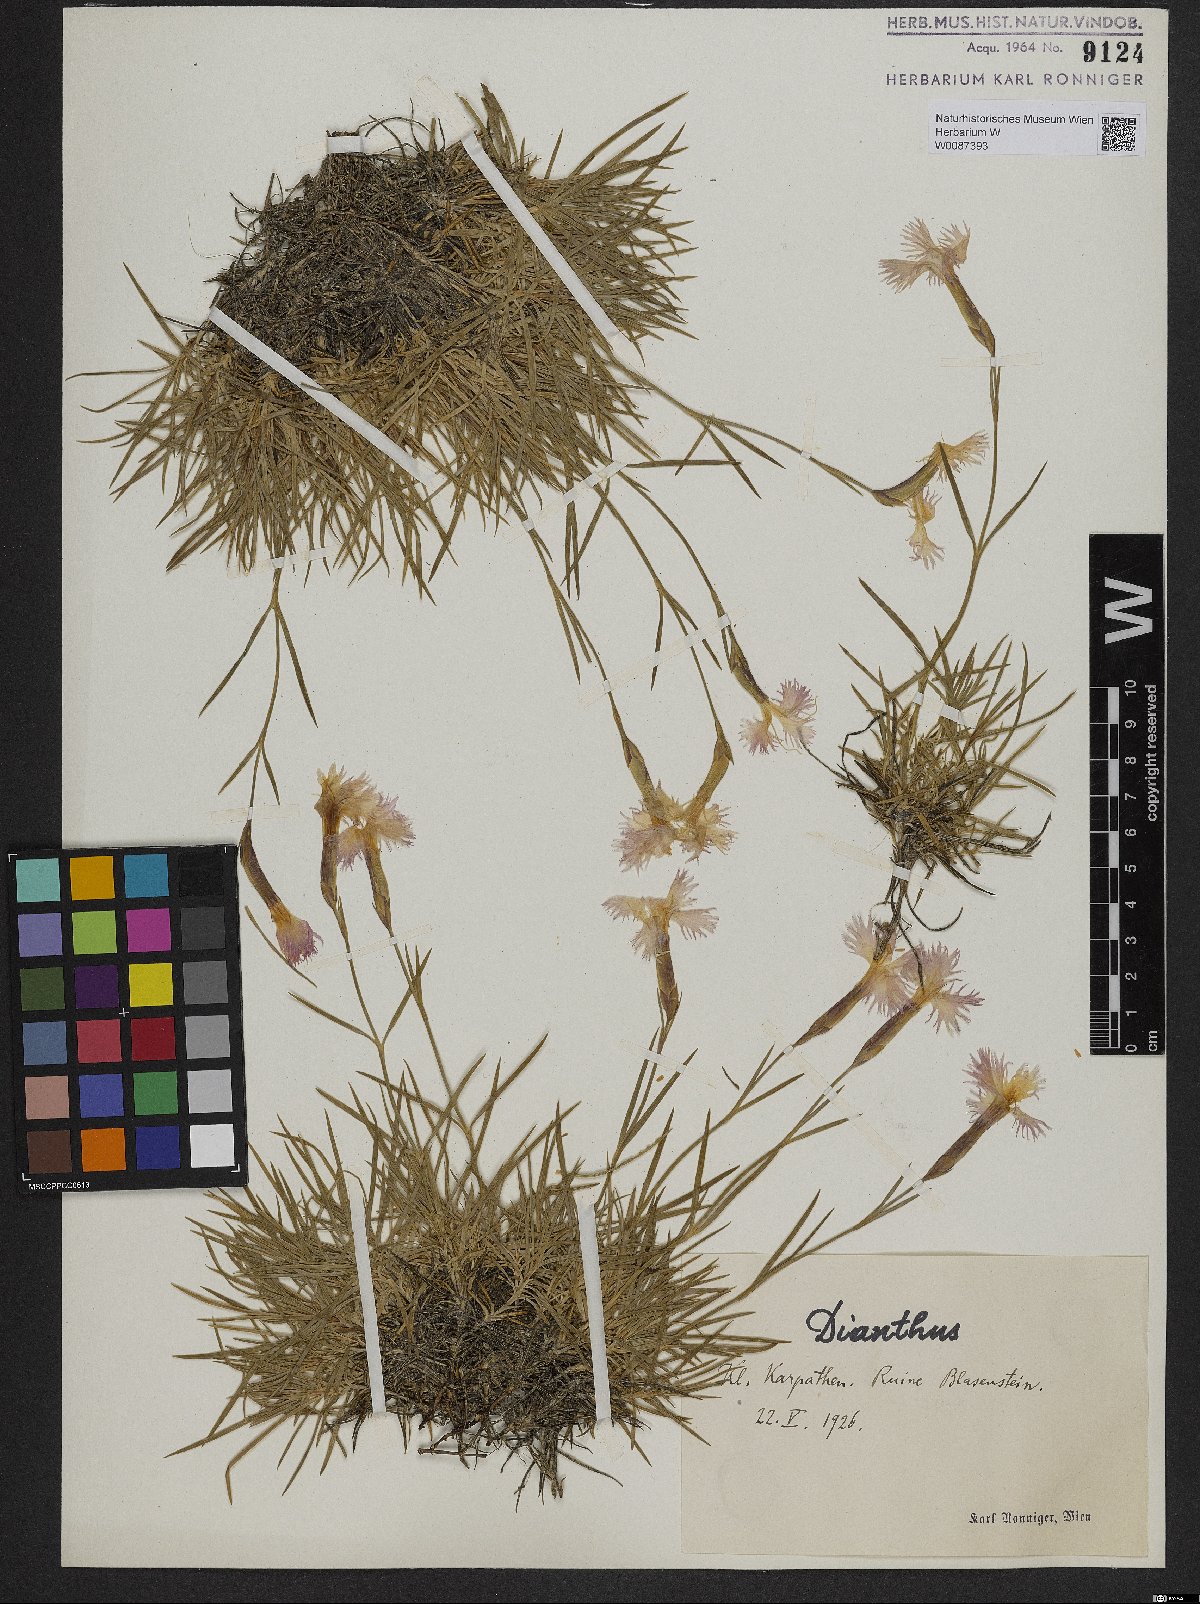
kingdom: Plantae
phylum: Tracheophyta
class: Magnoliopsida
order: Caryophyllales
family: Caryophyllaceae
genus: Dianthus
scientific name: Dianthus
